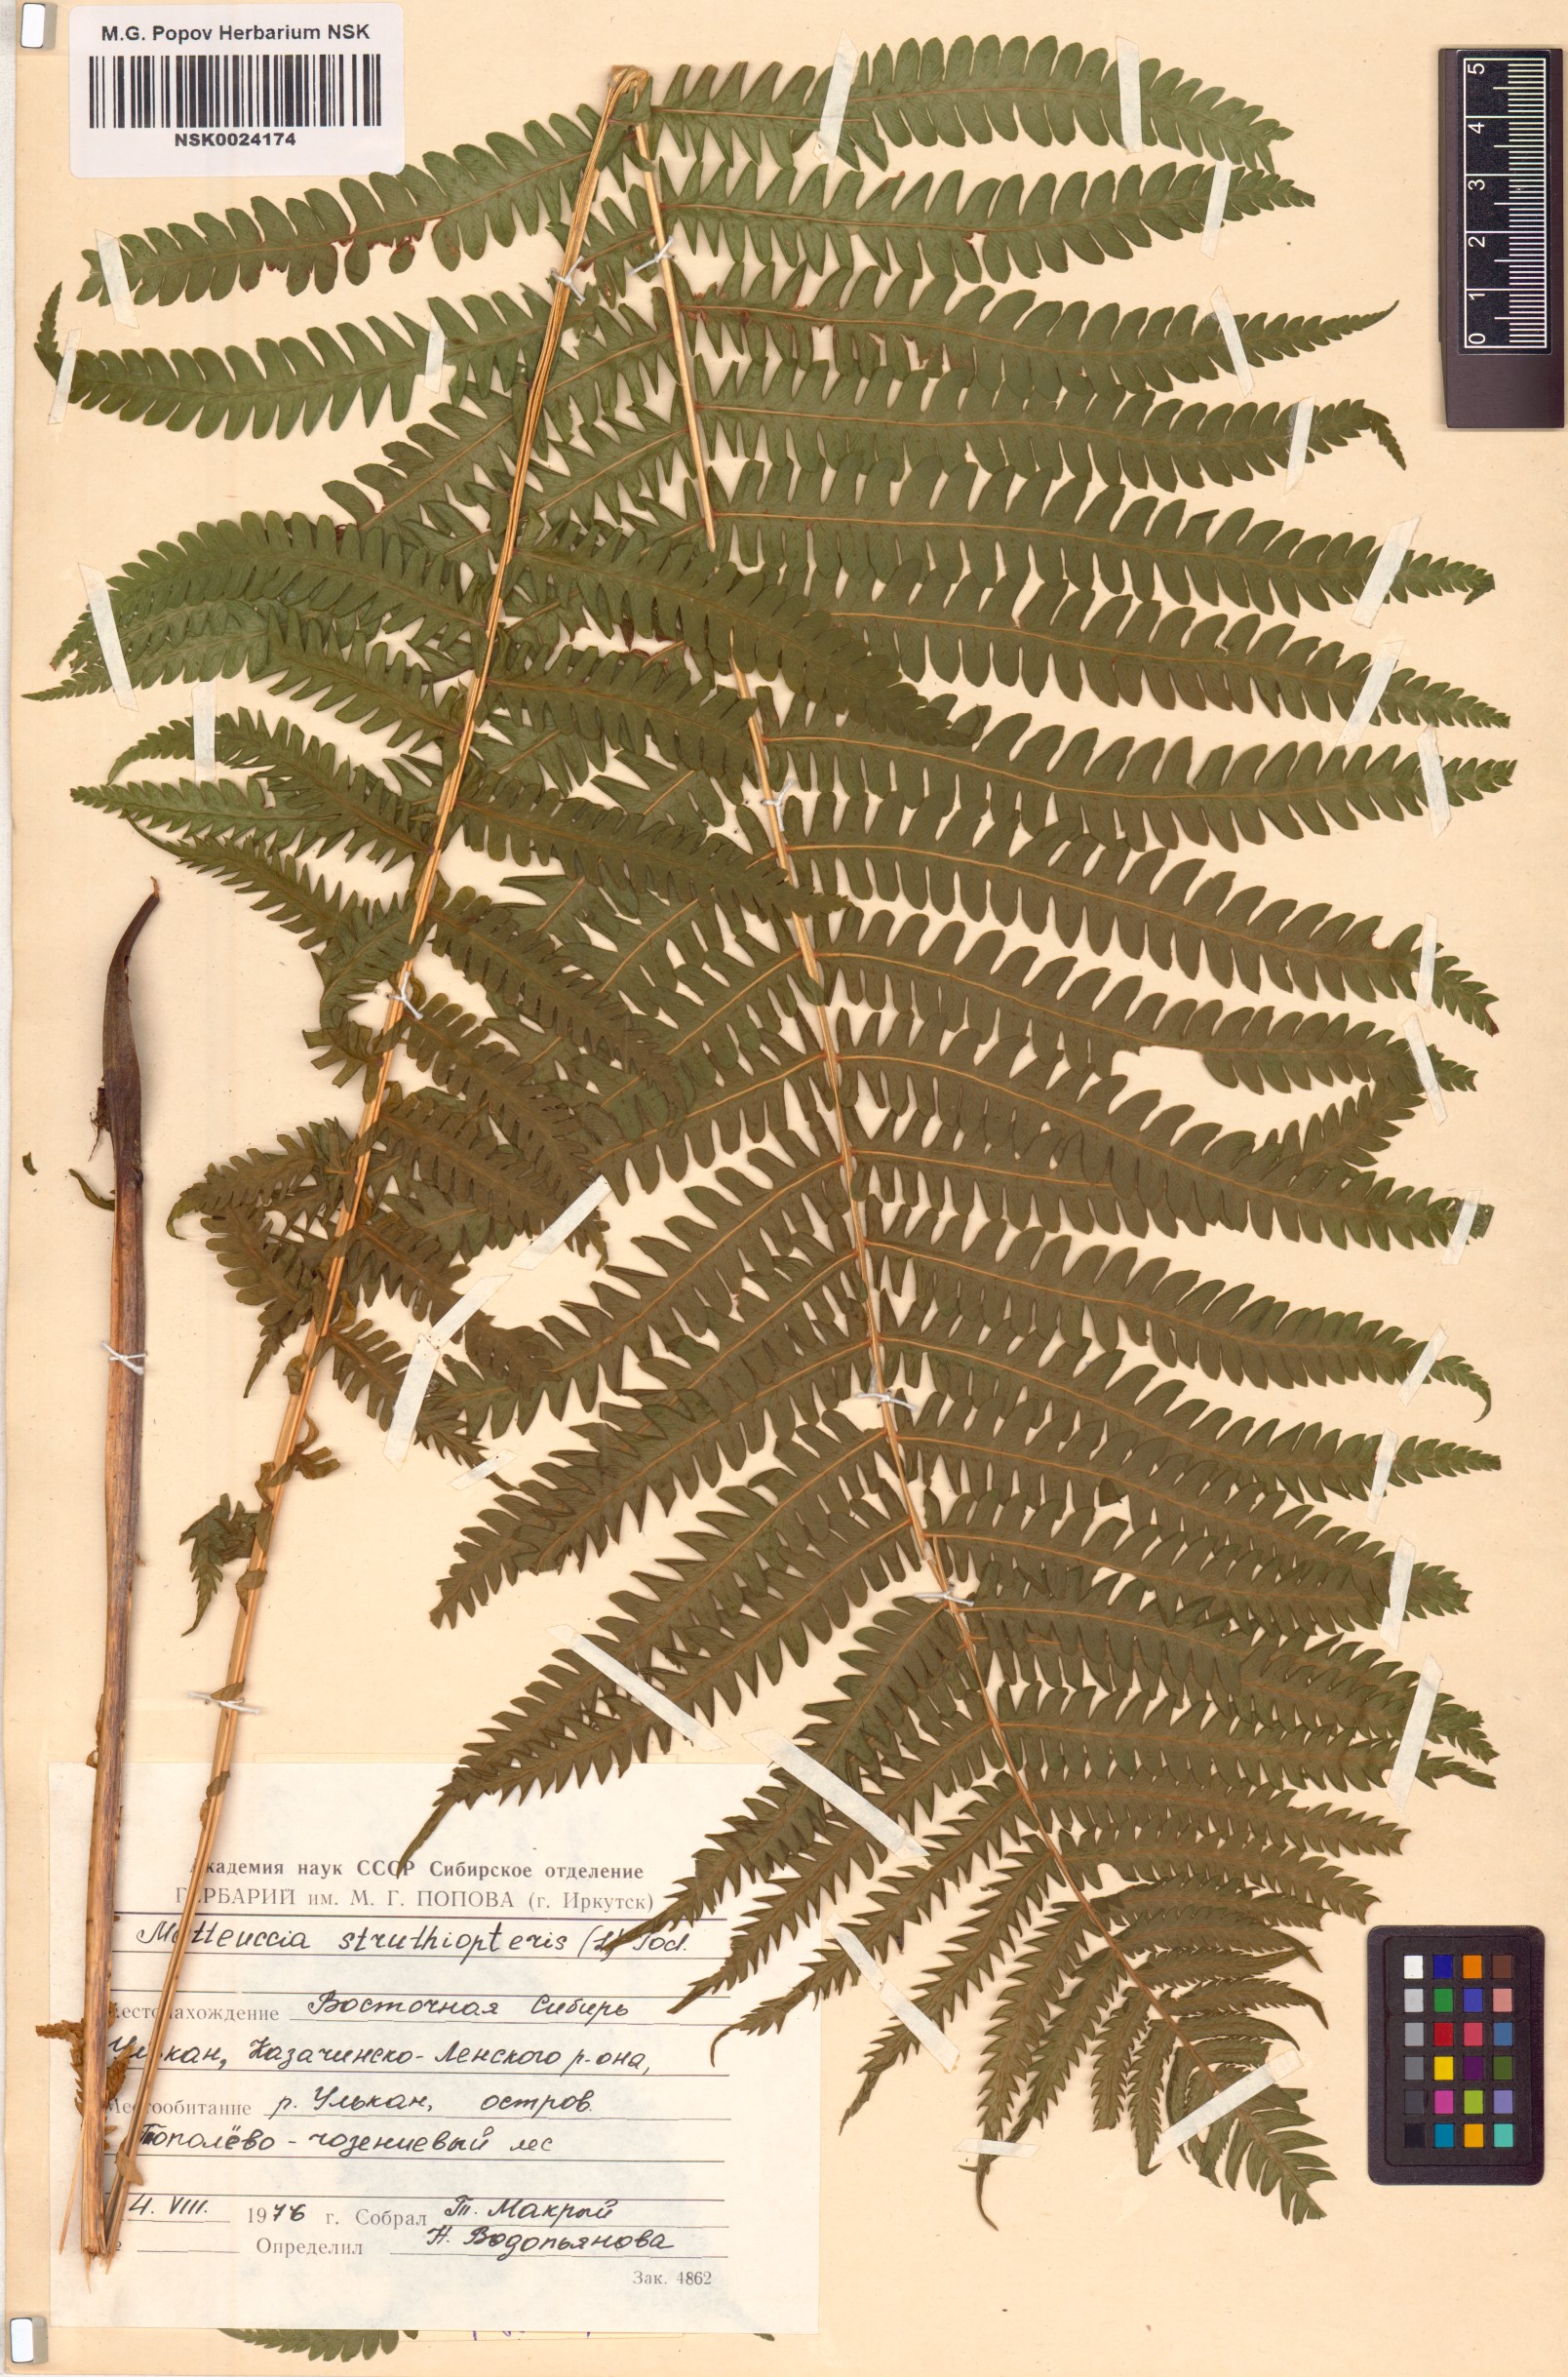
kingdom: Plantae
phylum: Tracheophyta
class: Polypodiopsida
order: Polypodiales
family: Onocleaceae
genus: Matteuccia
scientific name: Matteuccia struthiopteris
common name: Ostrich fern
